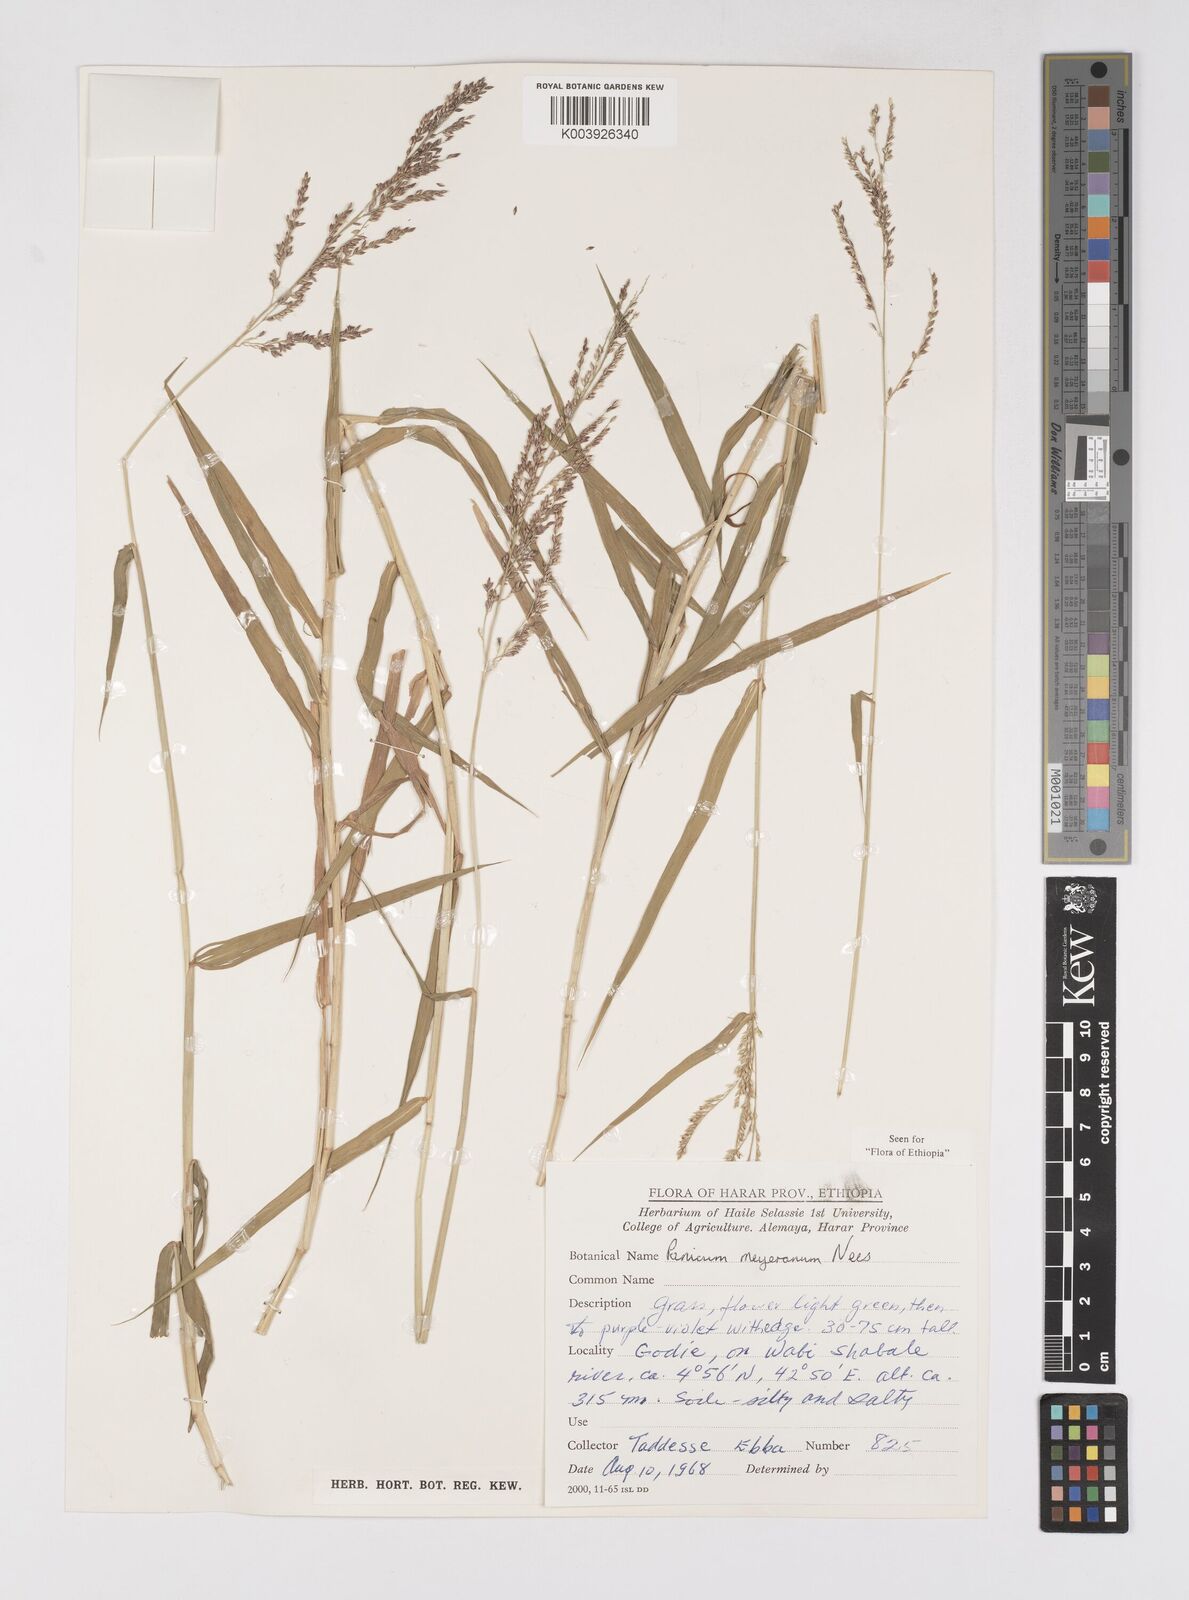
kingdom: Plantae
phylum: Tracheophyta
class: Liliopsida
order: Poales
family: Poaceae
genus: Eriochloa
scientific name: Eriochloa meyeriana
